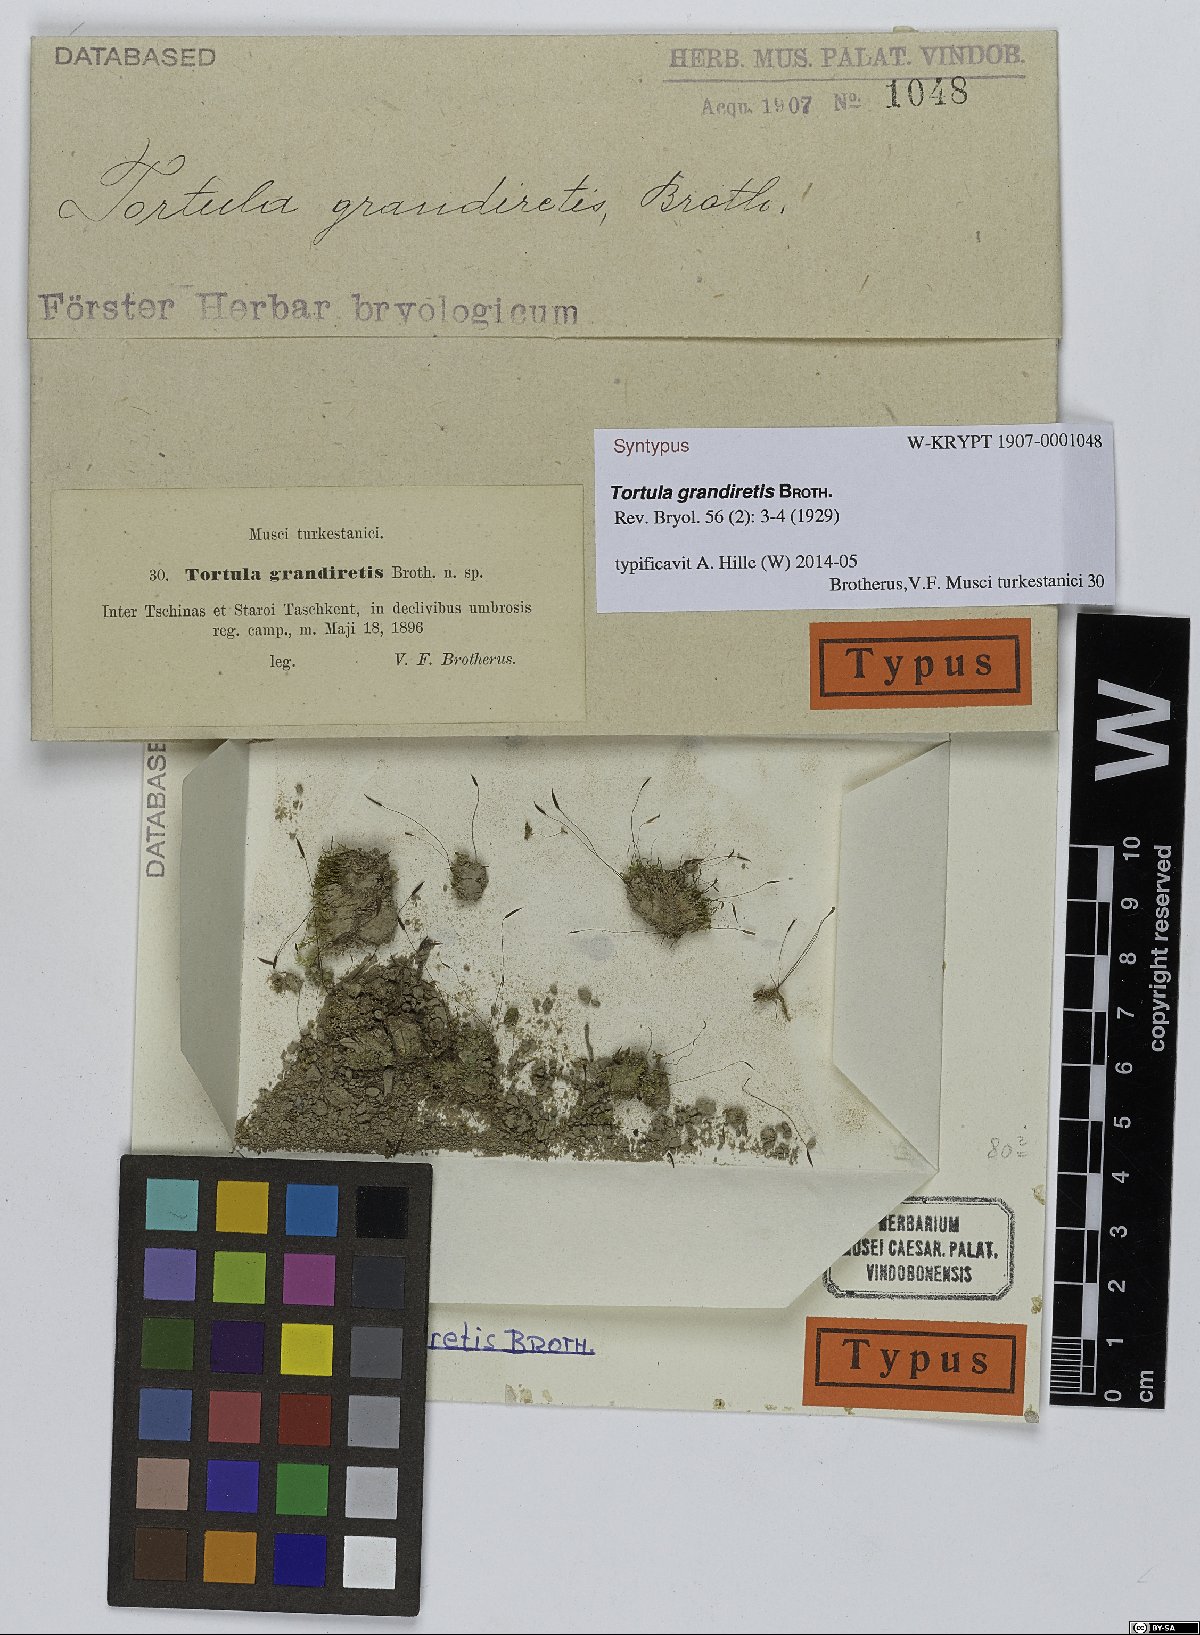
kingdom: Plantae
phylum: Bryophyta
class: Bryopsida
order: Pottiales
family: Pottiaceae
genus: Tortula
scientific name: Tortula grandiretis
